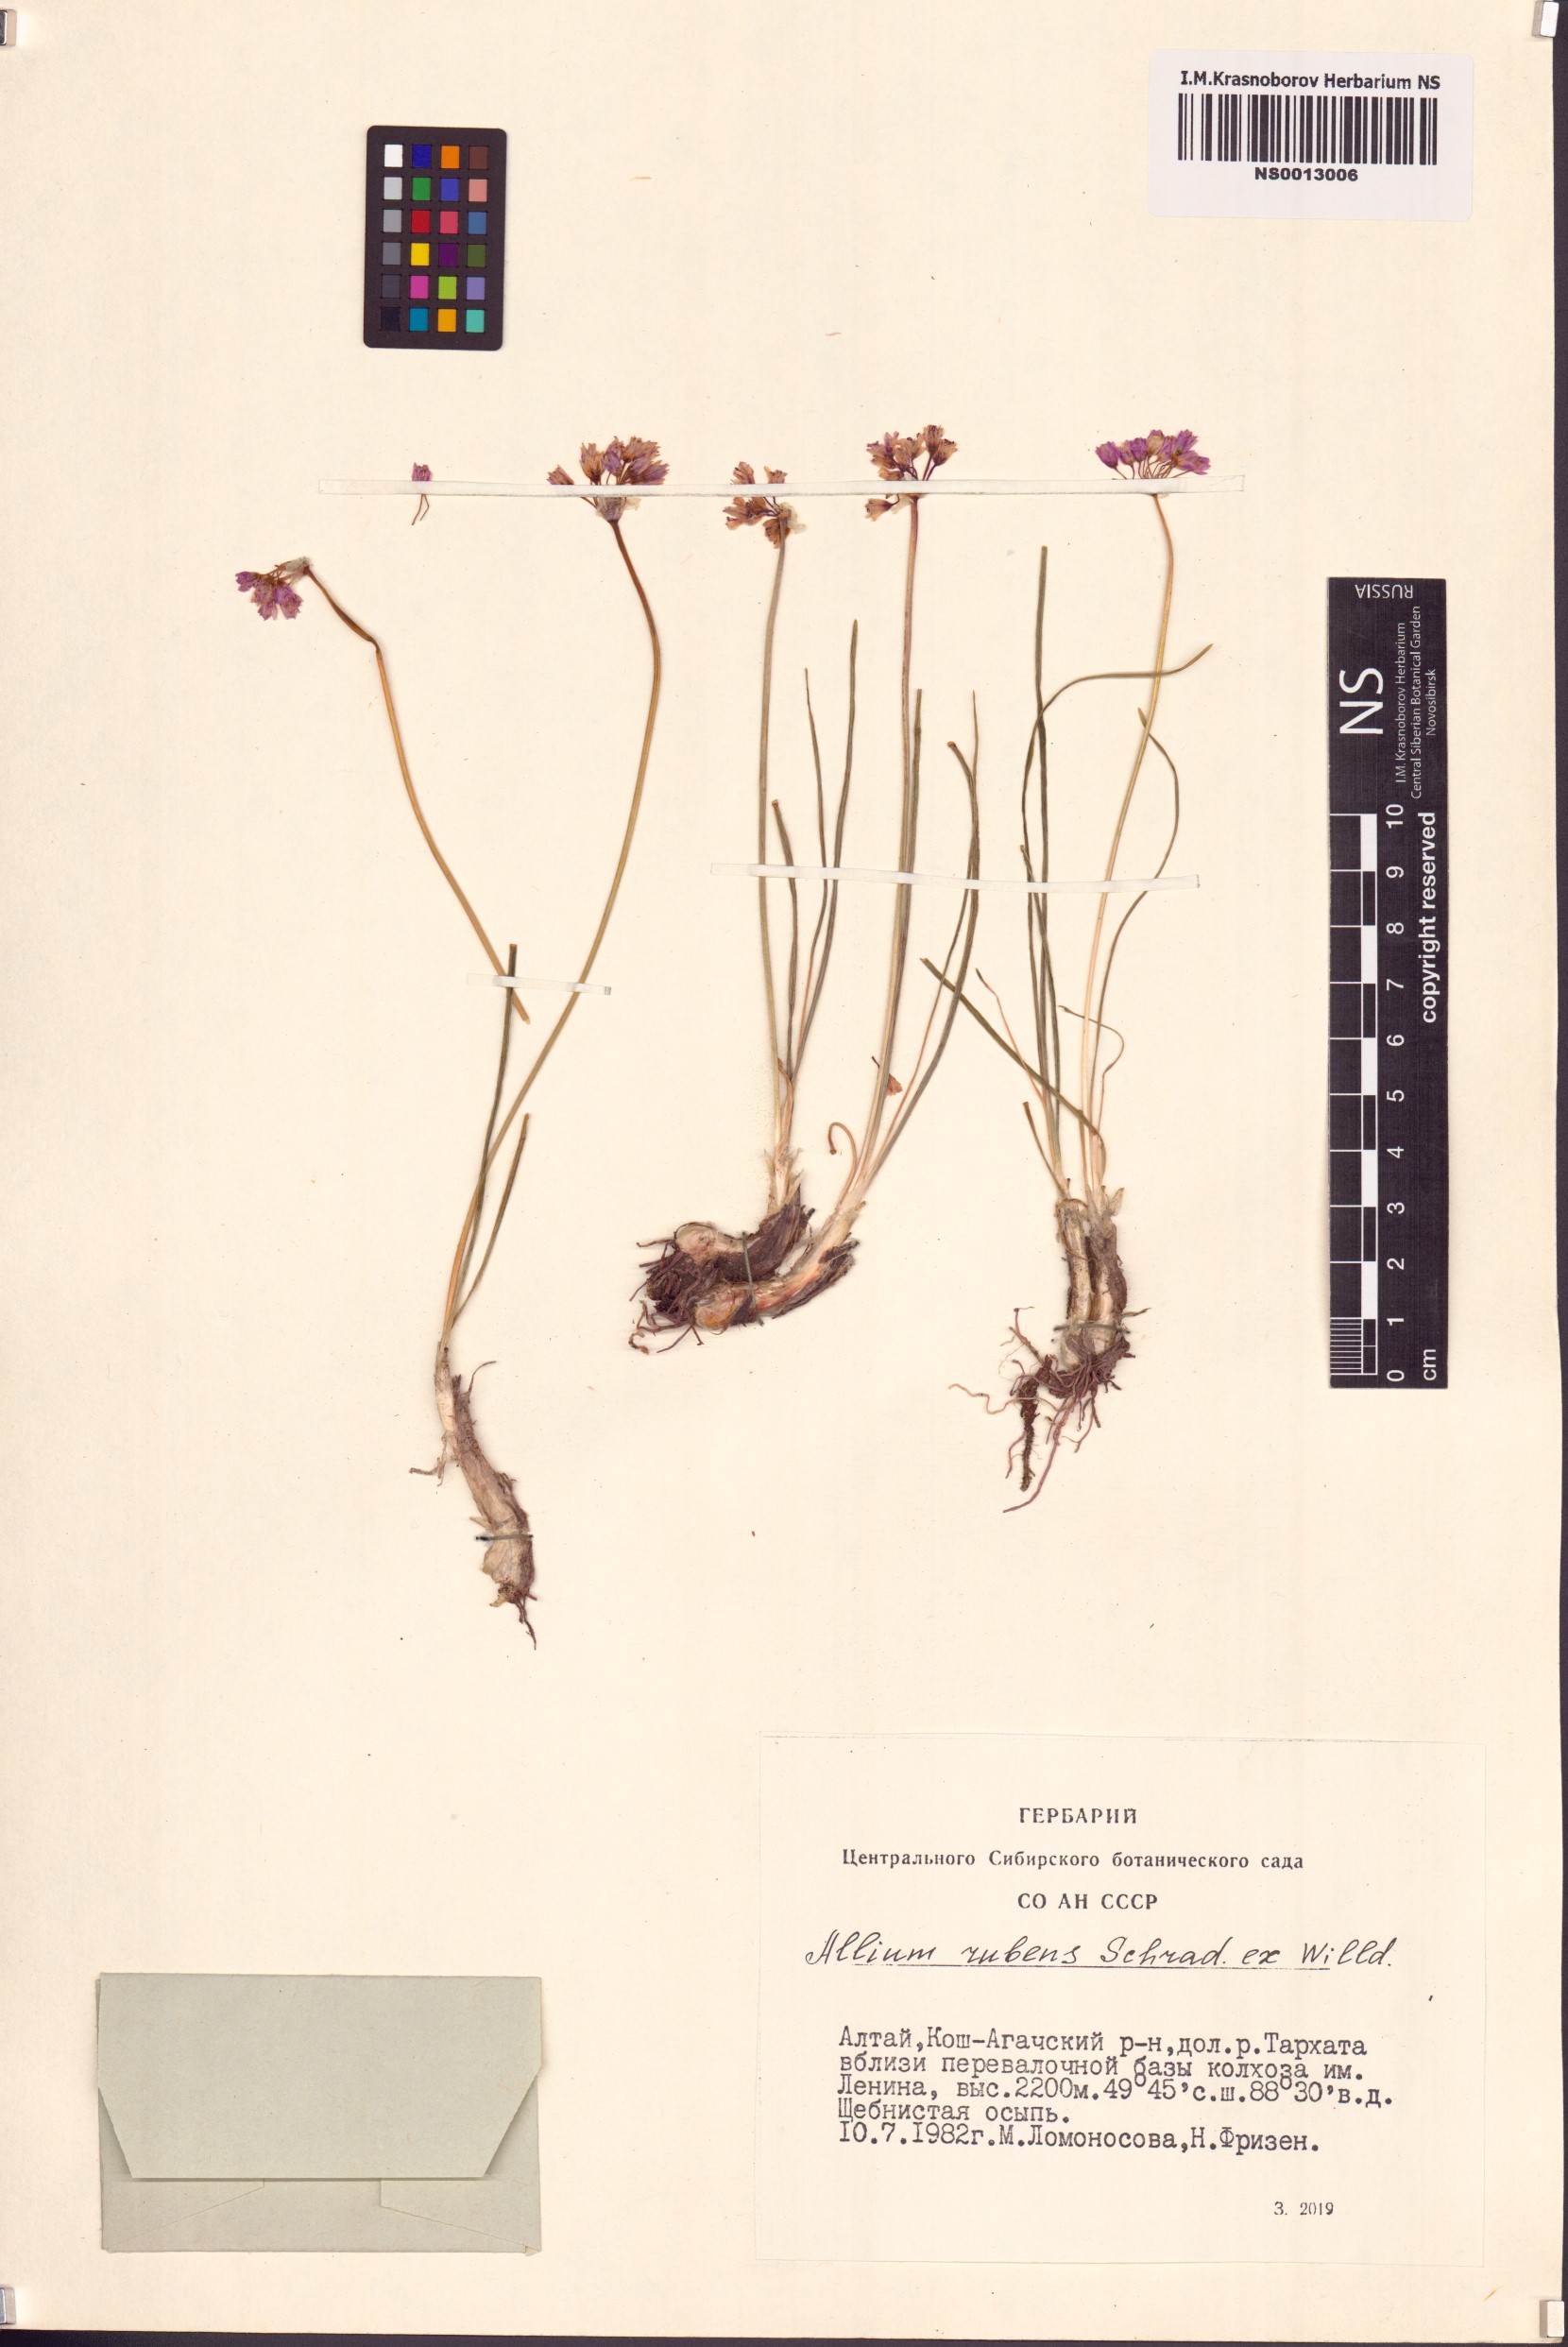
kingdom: Plantae
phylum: Tracheophyta
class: Liliopsida
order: Asparagales
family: Amaryllidaceae
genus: Allium
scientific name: Allium rubens
